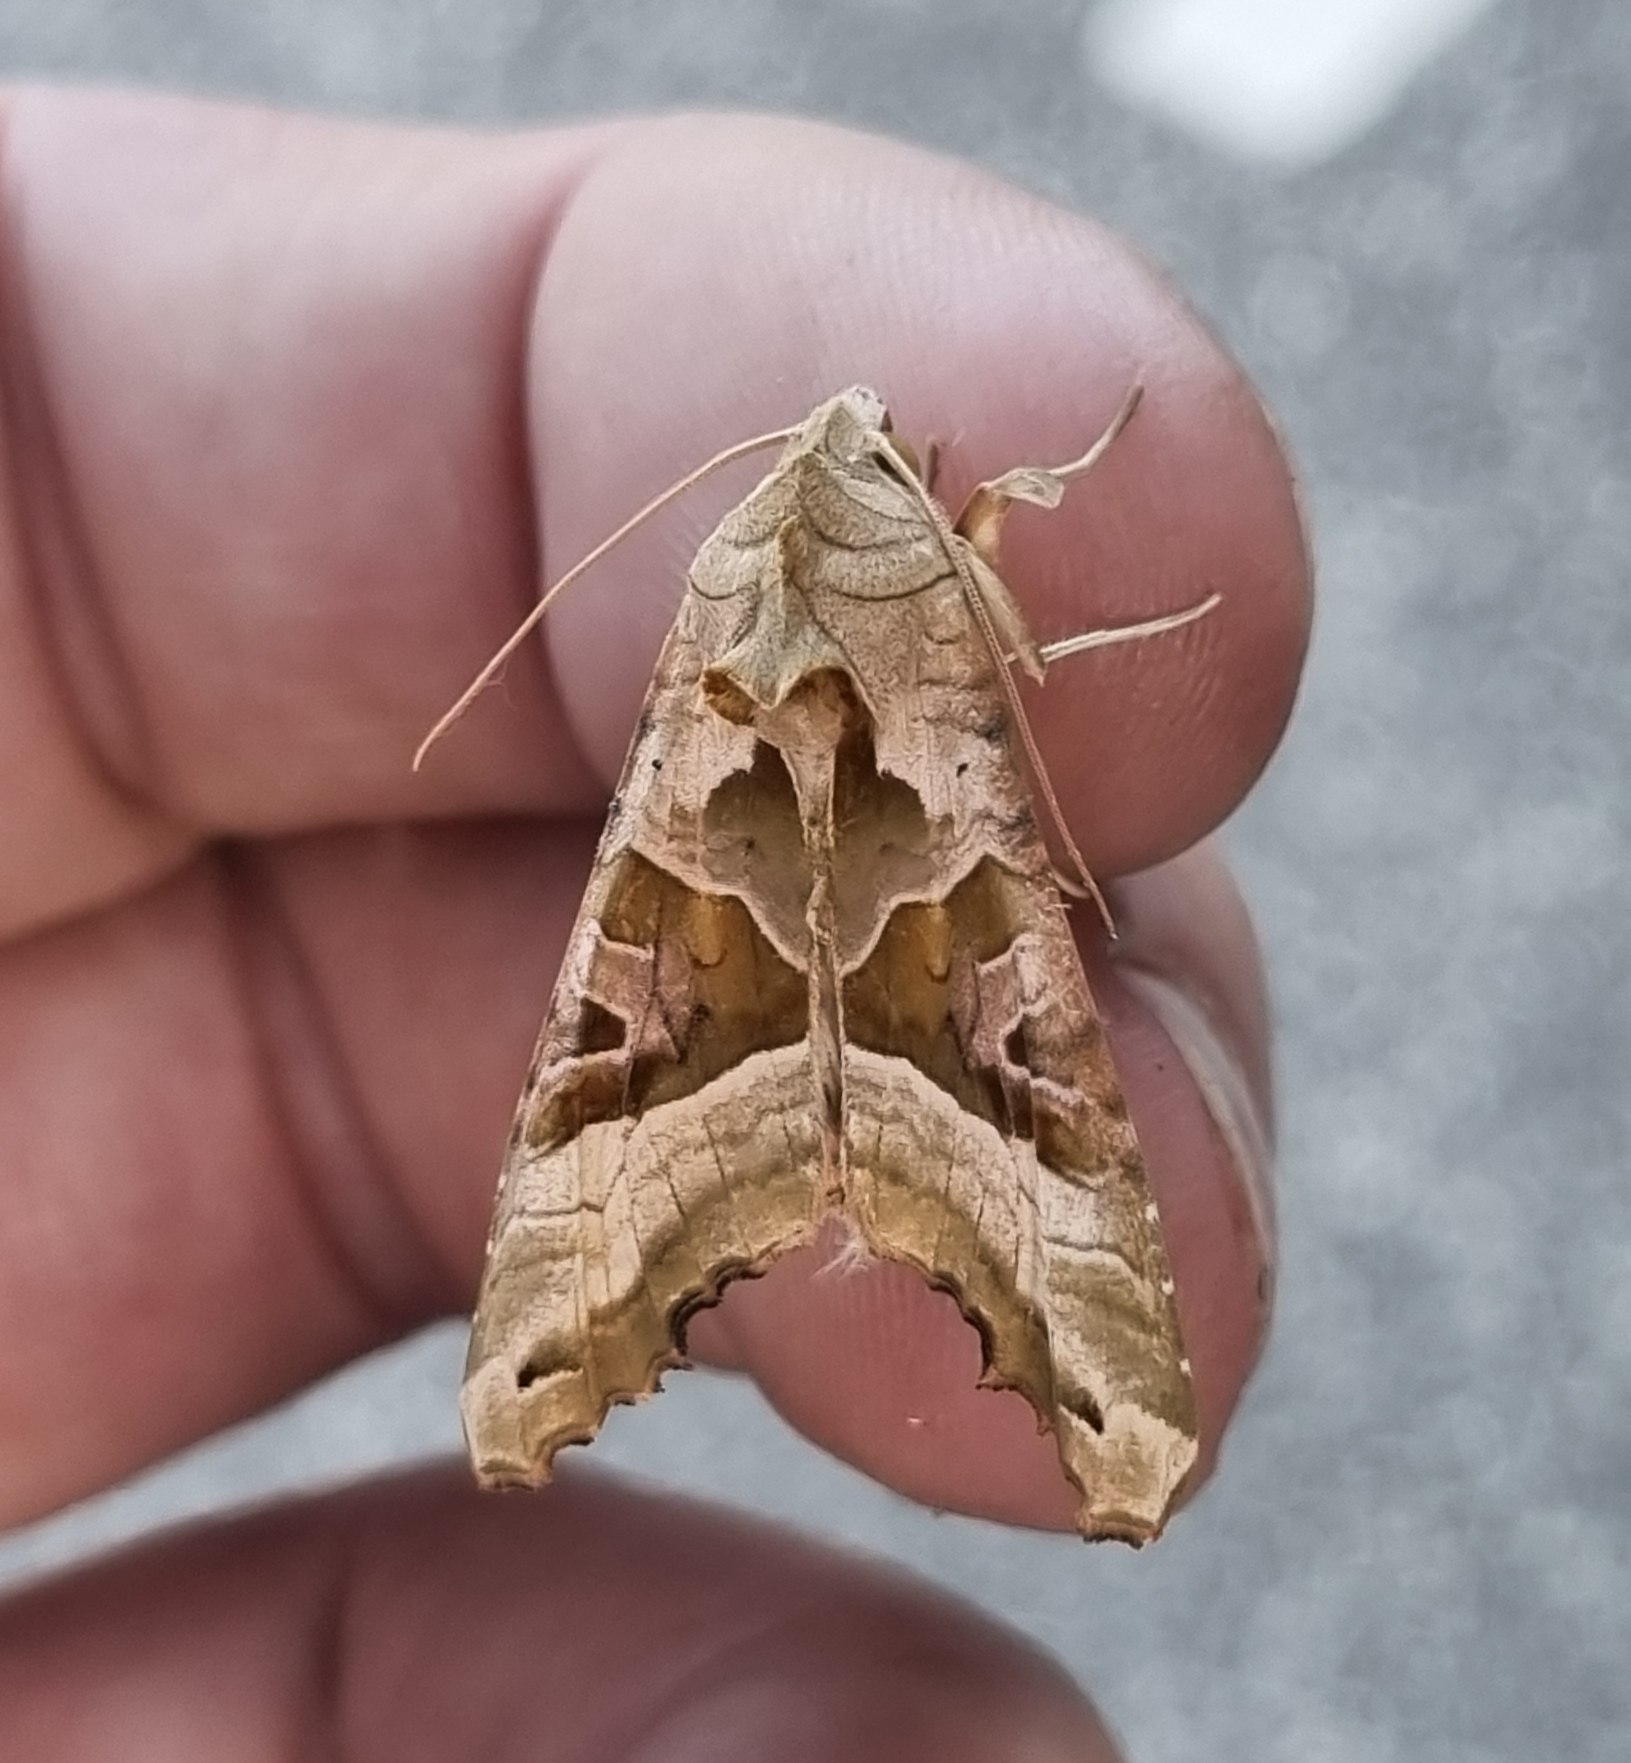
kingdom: Animalia
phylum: Arthropoda
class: Insecta
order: Lepidoptera
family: Noctuidae
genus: Phlogophora
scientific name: Phlogophora meticulosa
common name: Agatugle
